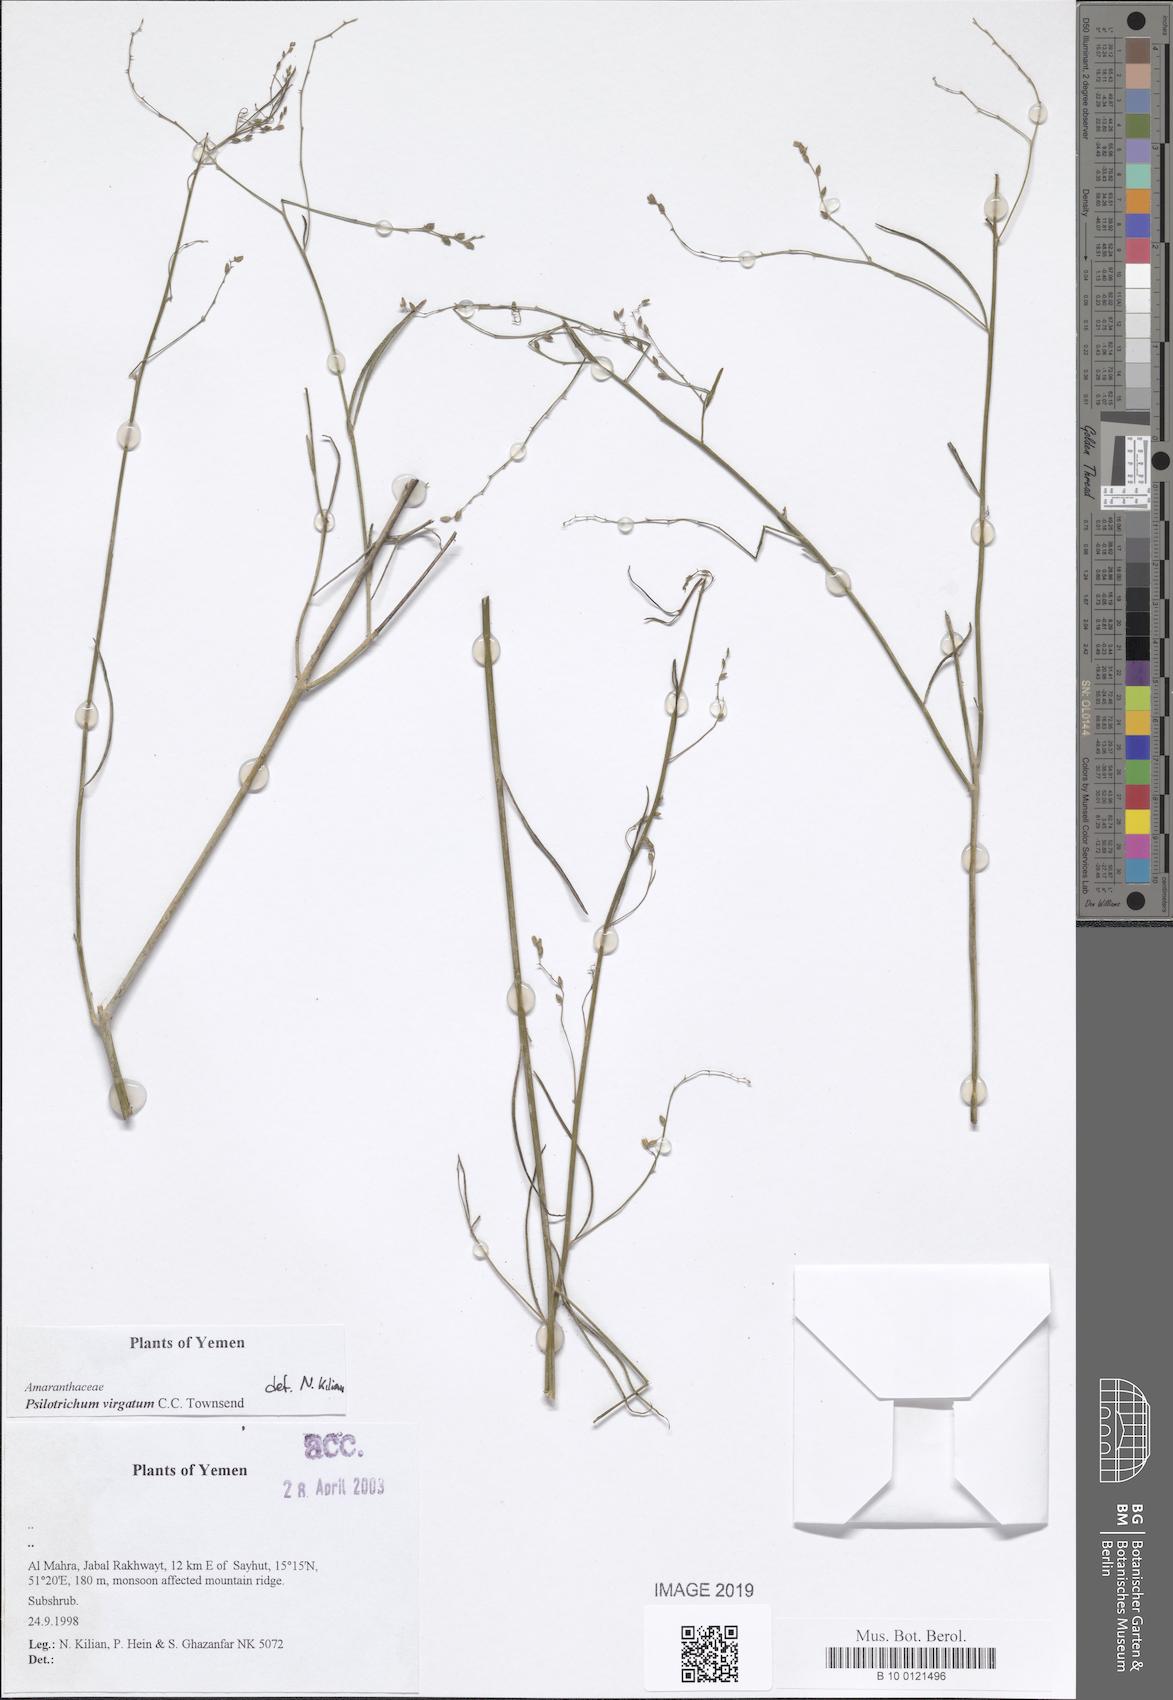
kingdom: Plantae
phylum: Tracheophyta
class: Magnoliopsida
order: Caryophyllales
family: Amaranthaceae
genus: Psilotrichum
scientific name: Psilotrichum virgatum
